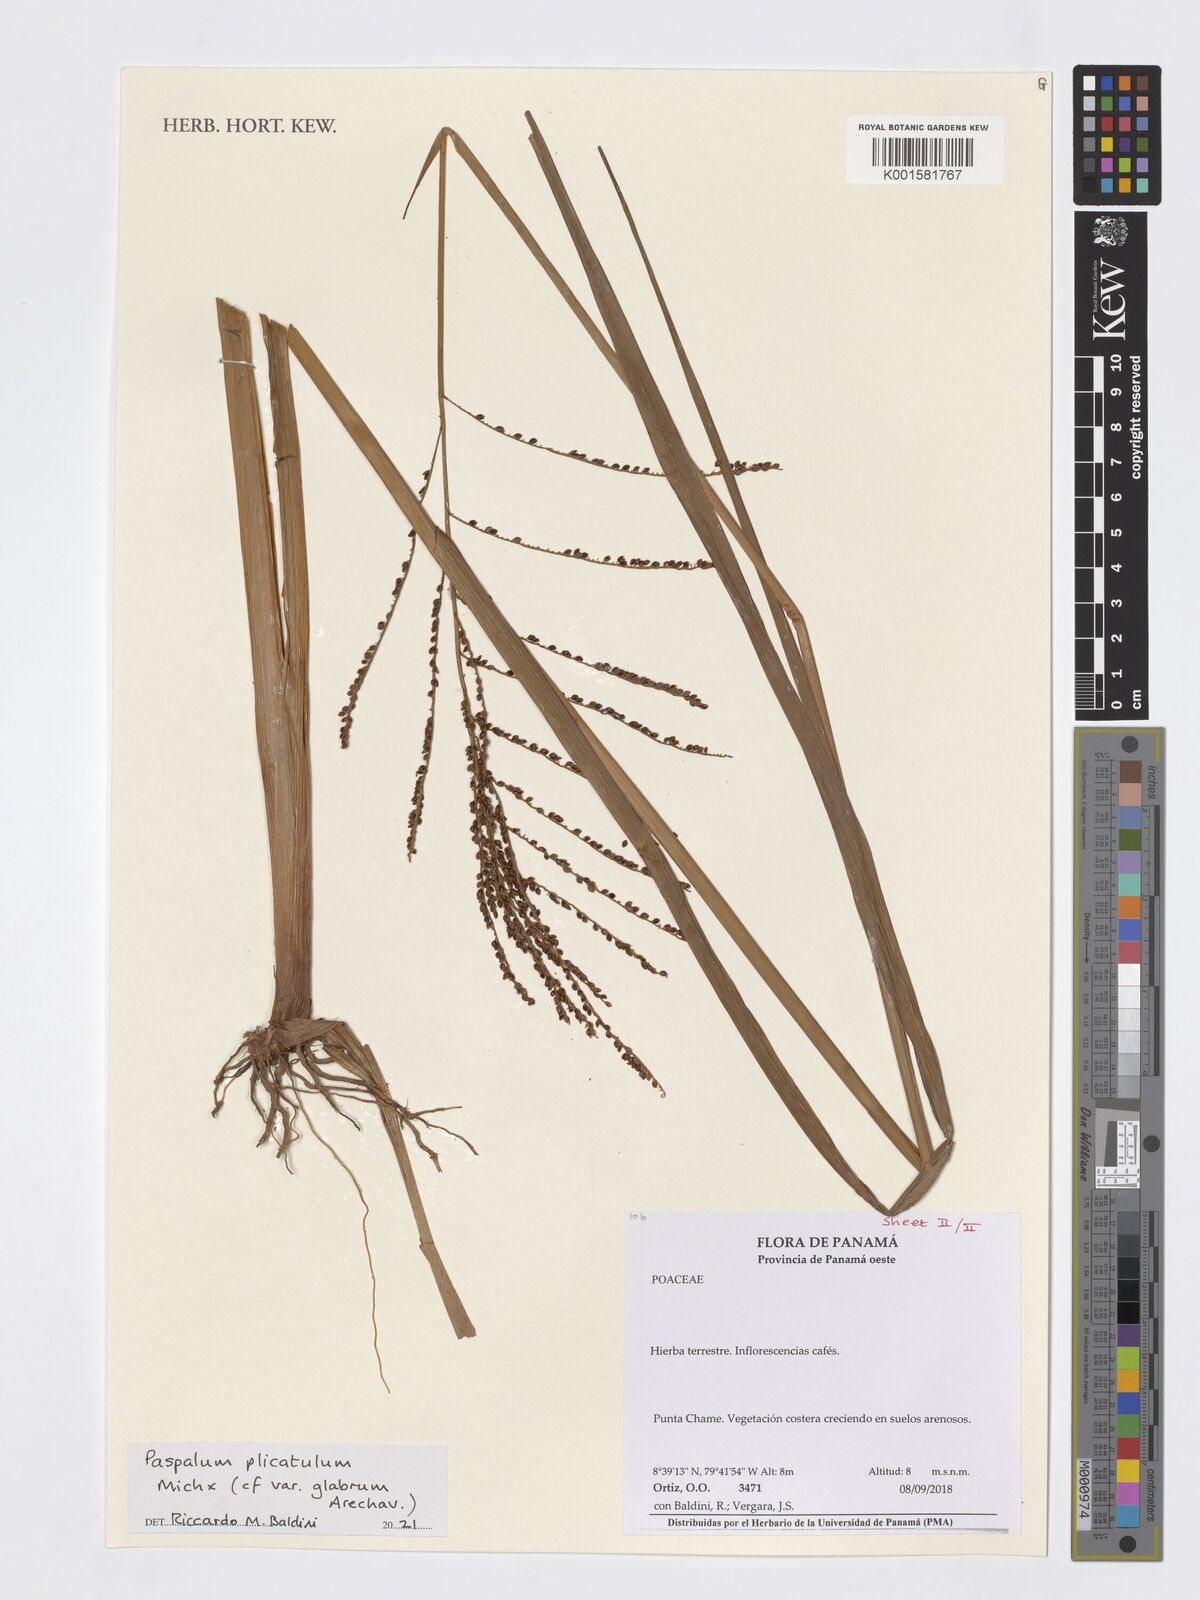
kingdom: Plantae
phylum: Tracheophyta
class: Liliopsida
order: Poales
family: Poaceae
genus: Paspalum
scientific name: Paspalum plicatulum
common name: Top paspalum
